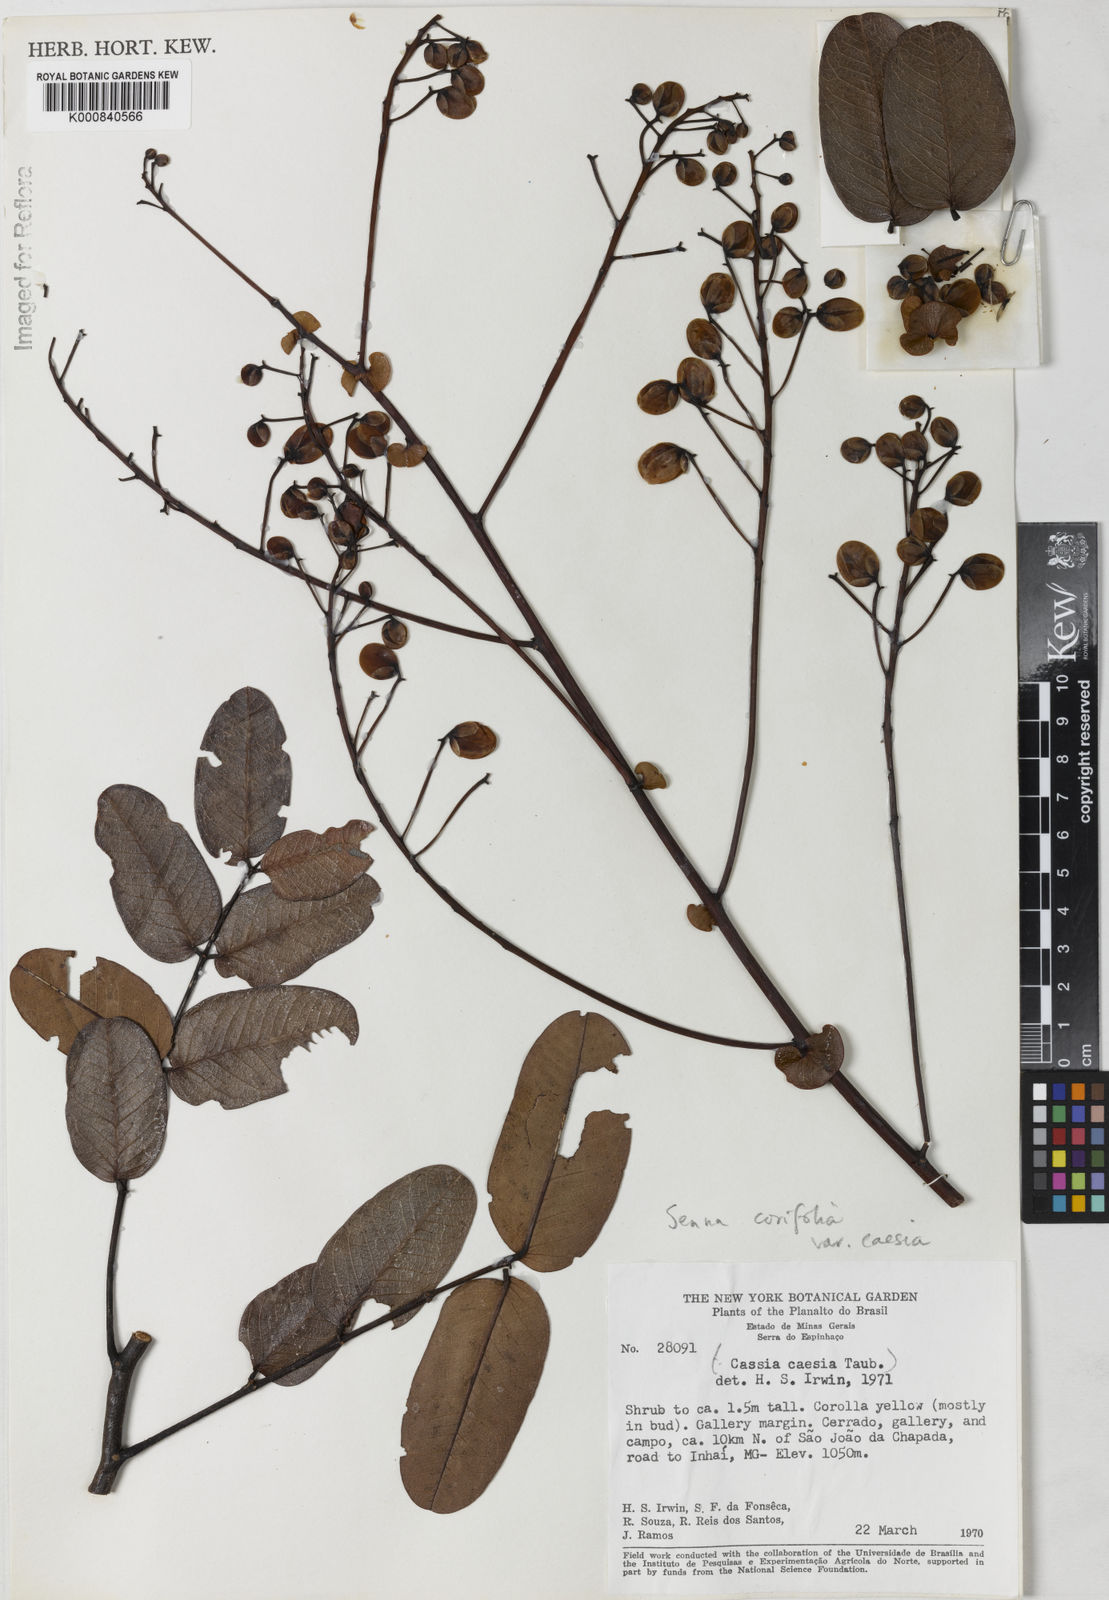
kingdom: Plantae
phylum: Tracheophyta
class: Magnoliopsida
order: Fabales
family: Fabaceae
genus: Senna
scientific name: Senna corifolia
